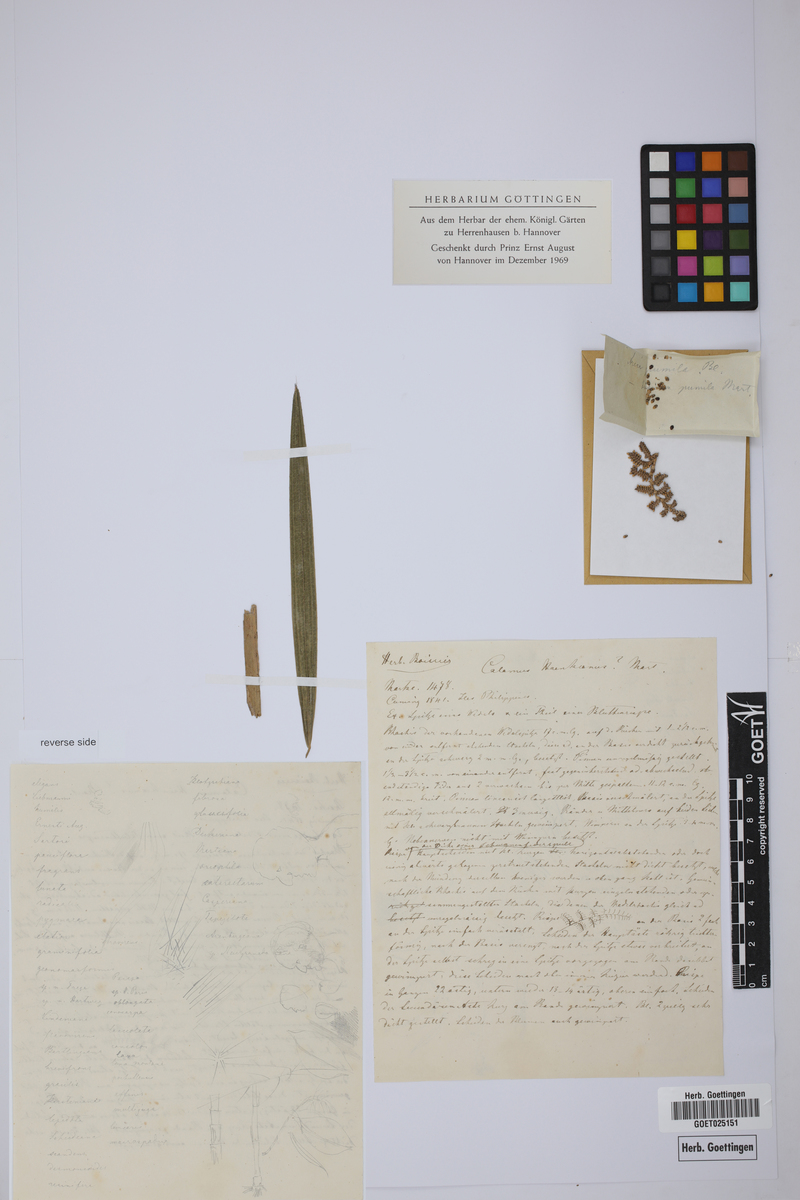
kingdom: Plantae
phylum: Tracheophyta
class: Liliopsida
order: Arecales
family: Arecaceae
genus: Calamus
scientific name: Calamus usitatus
